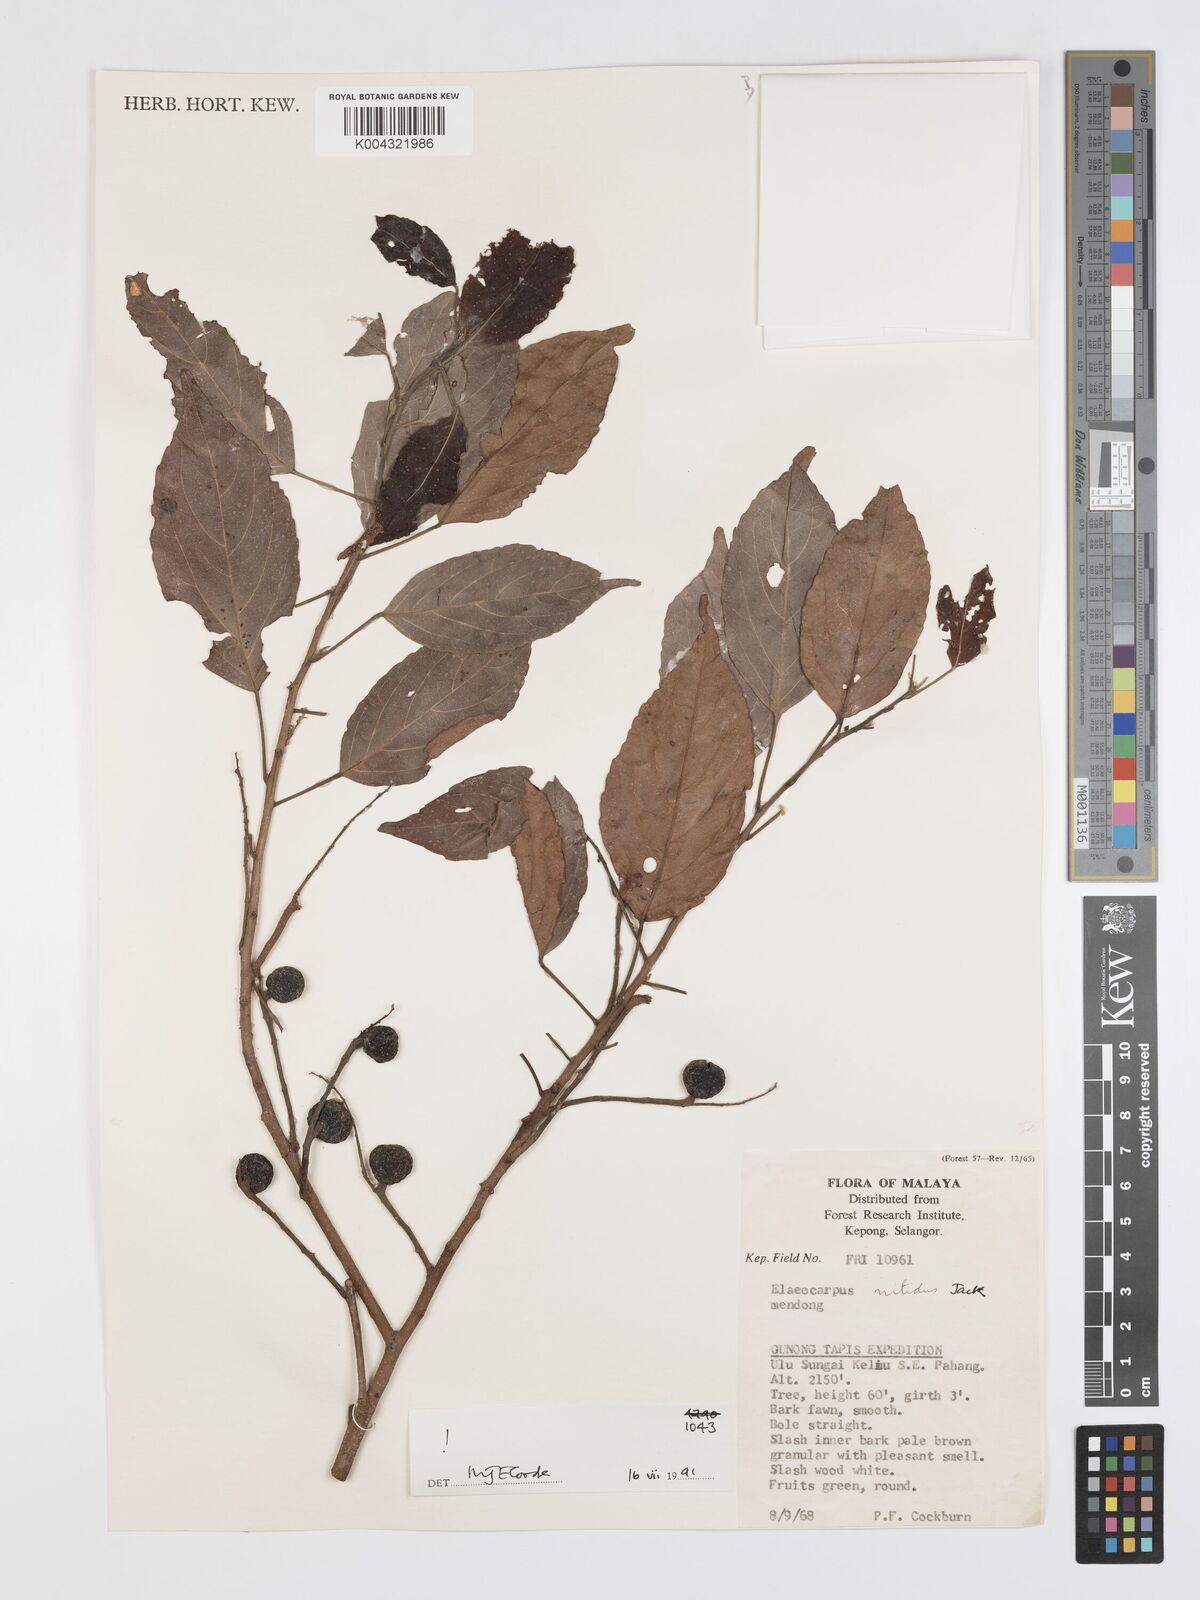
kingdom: Plantae
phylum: Tracheophyta
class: Magnoliopsida
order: Oxalidales
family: Elaeocarpaceae
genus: Elaeocarpus
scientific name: Elaeocarpus nitidus
